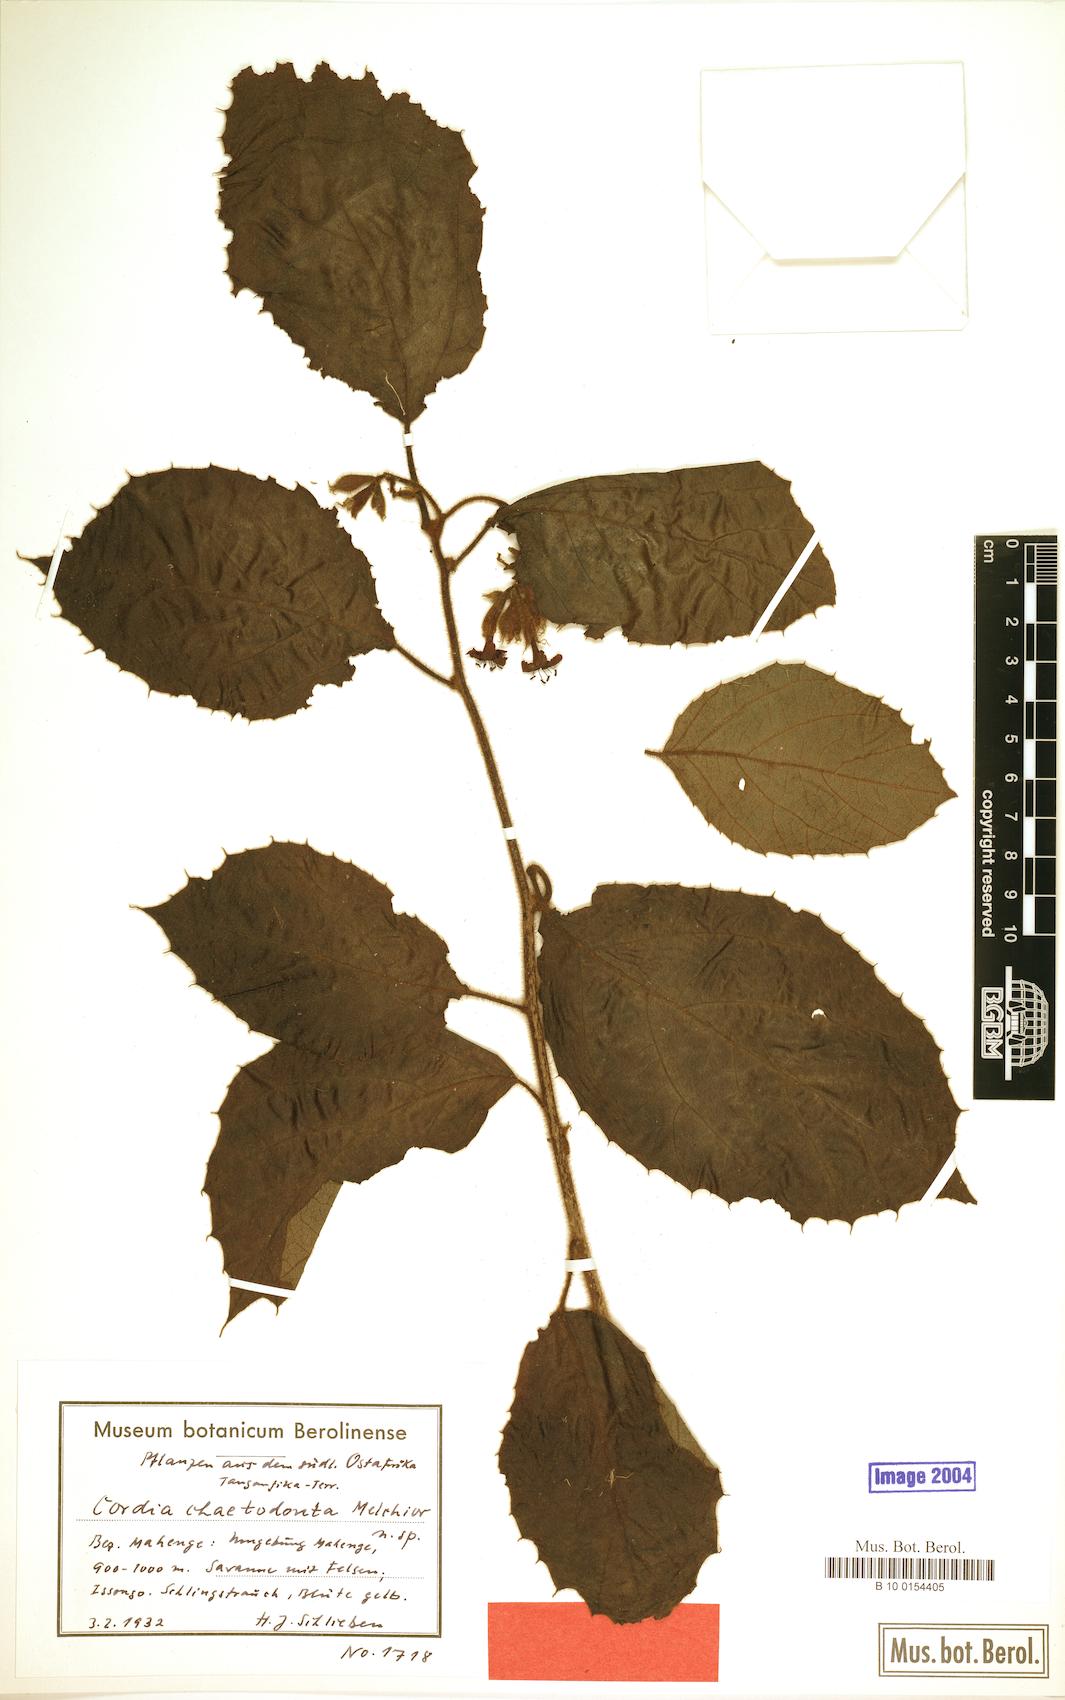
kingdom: Plantae
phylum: Tracheophyta
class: Magnoliopsida
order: Boraginales
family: Cordiaceae
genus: Cordia
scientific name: Cordia chaetodonta
